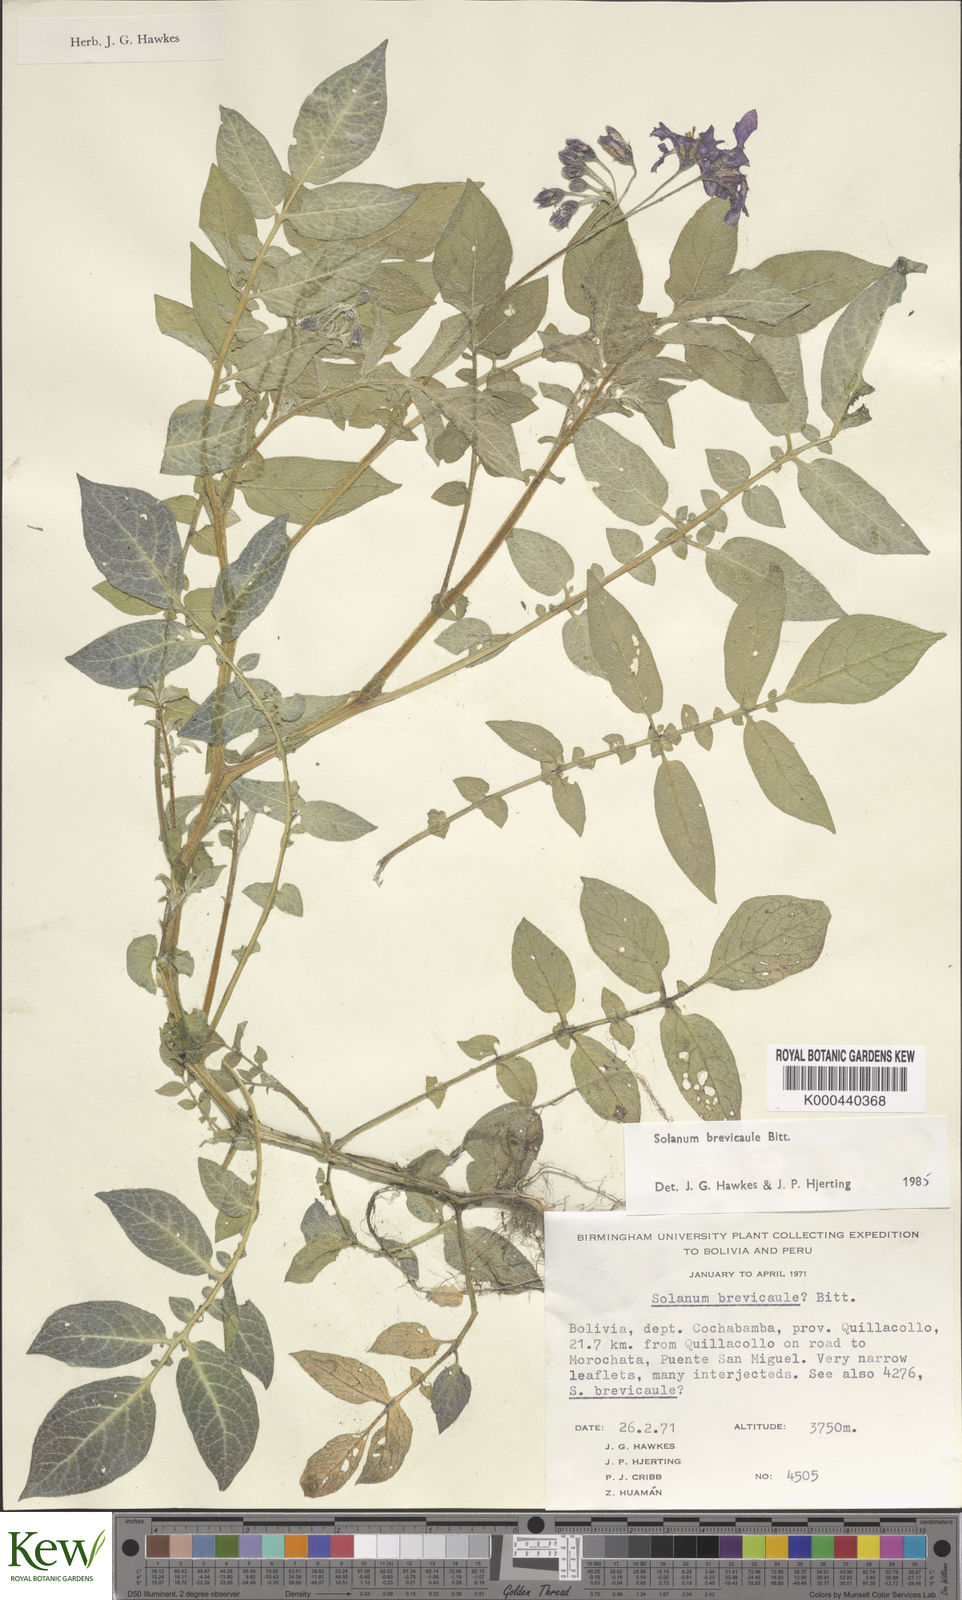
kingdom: Plantae
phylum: Tracheophyta
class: Magnoliopsida
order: Solanales
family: Solanaceae
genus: Solanum
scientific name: Solanum brevicaule
